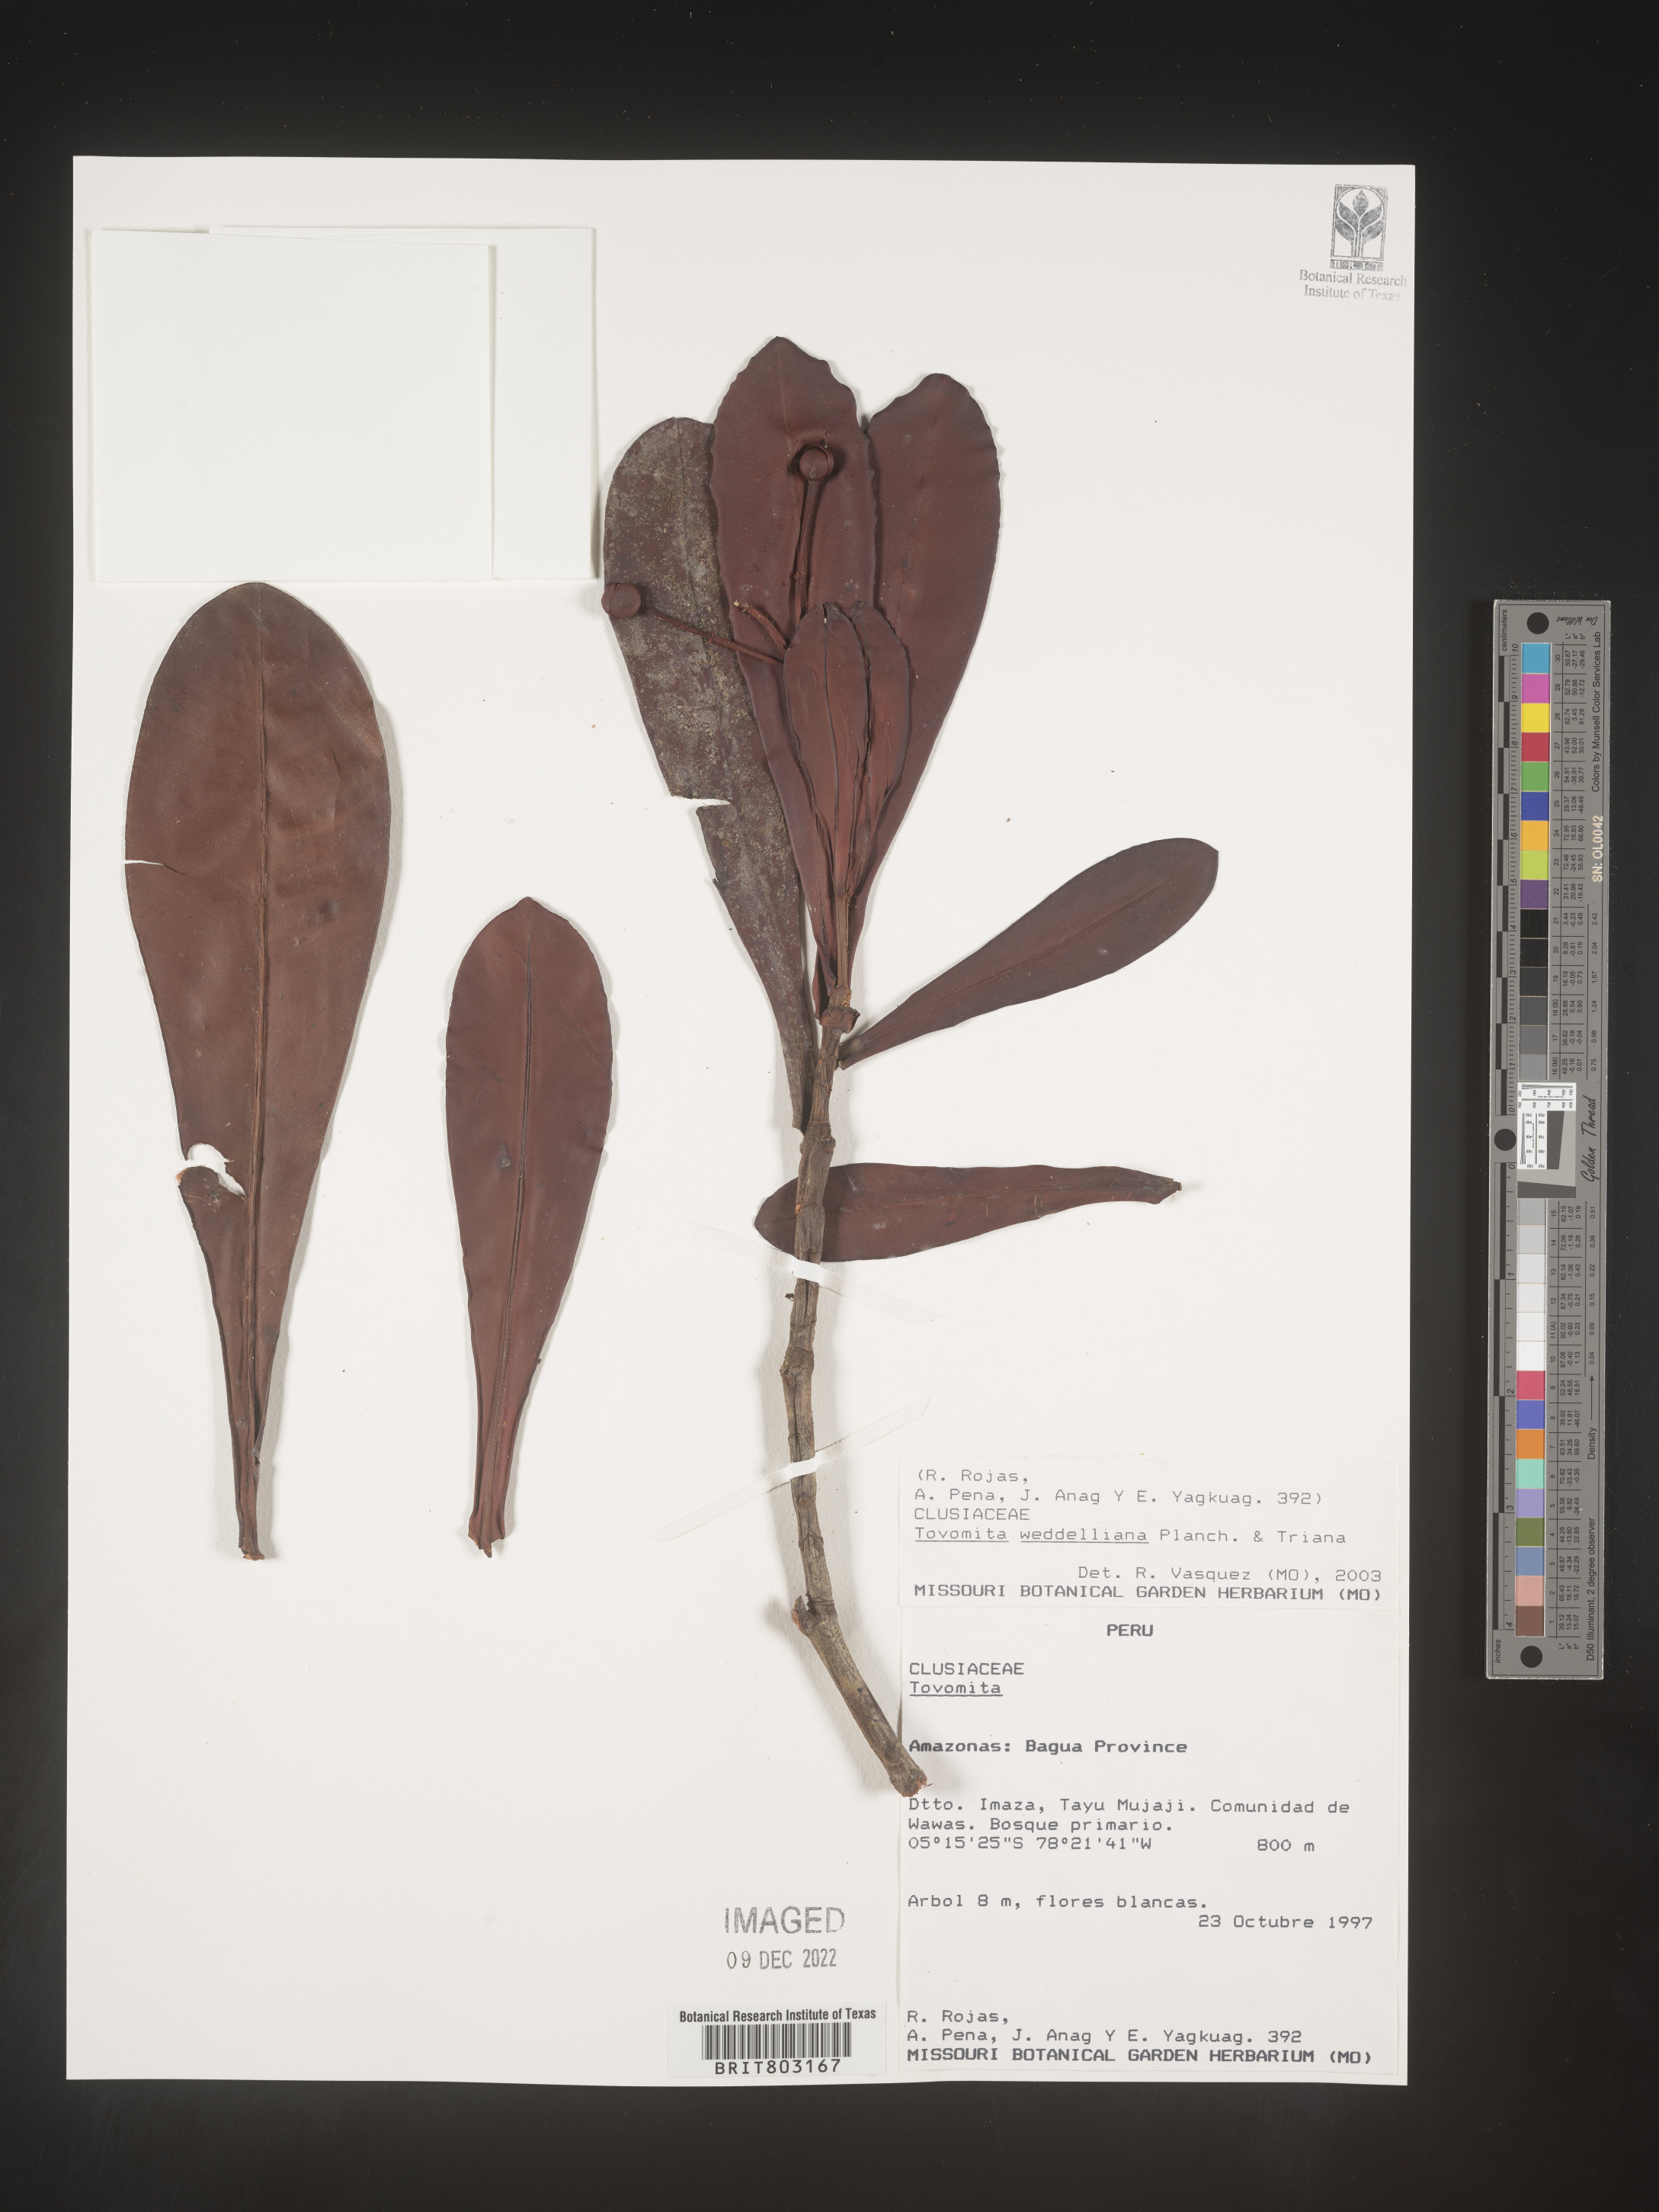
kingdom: Plantae
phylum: Tracheophyta
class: Magnoliopsida
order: Malpighiales
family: Clusiaceae
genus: Arawakia
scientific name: Arawakia weddelliana
